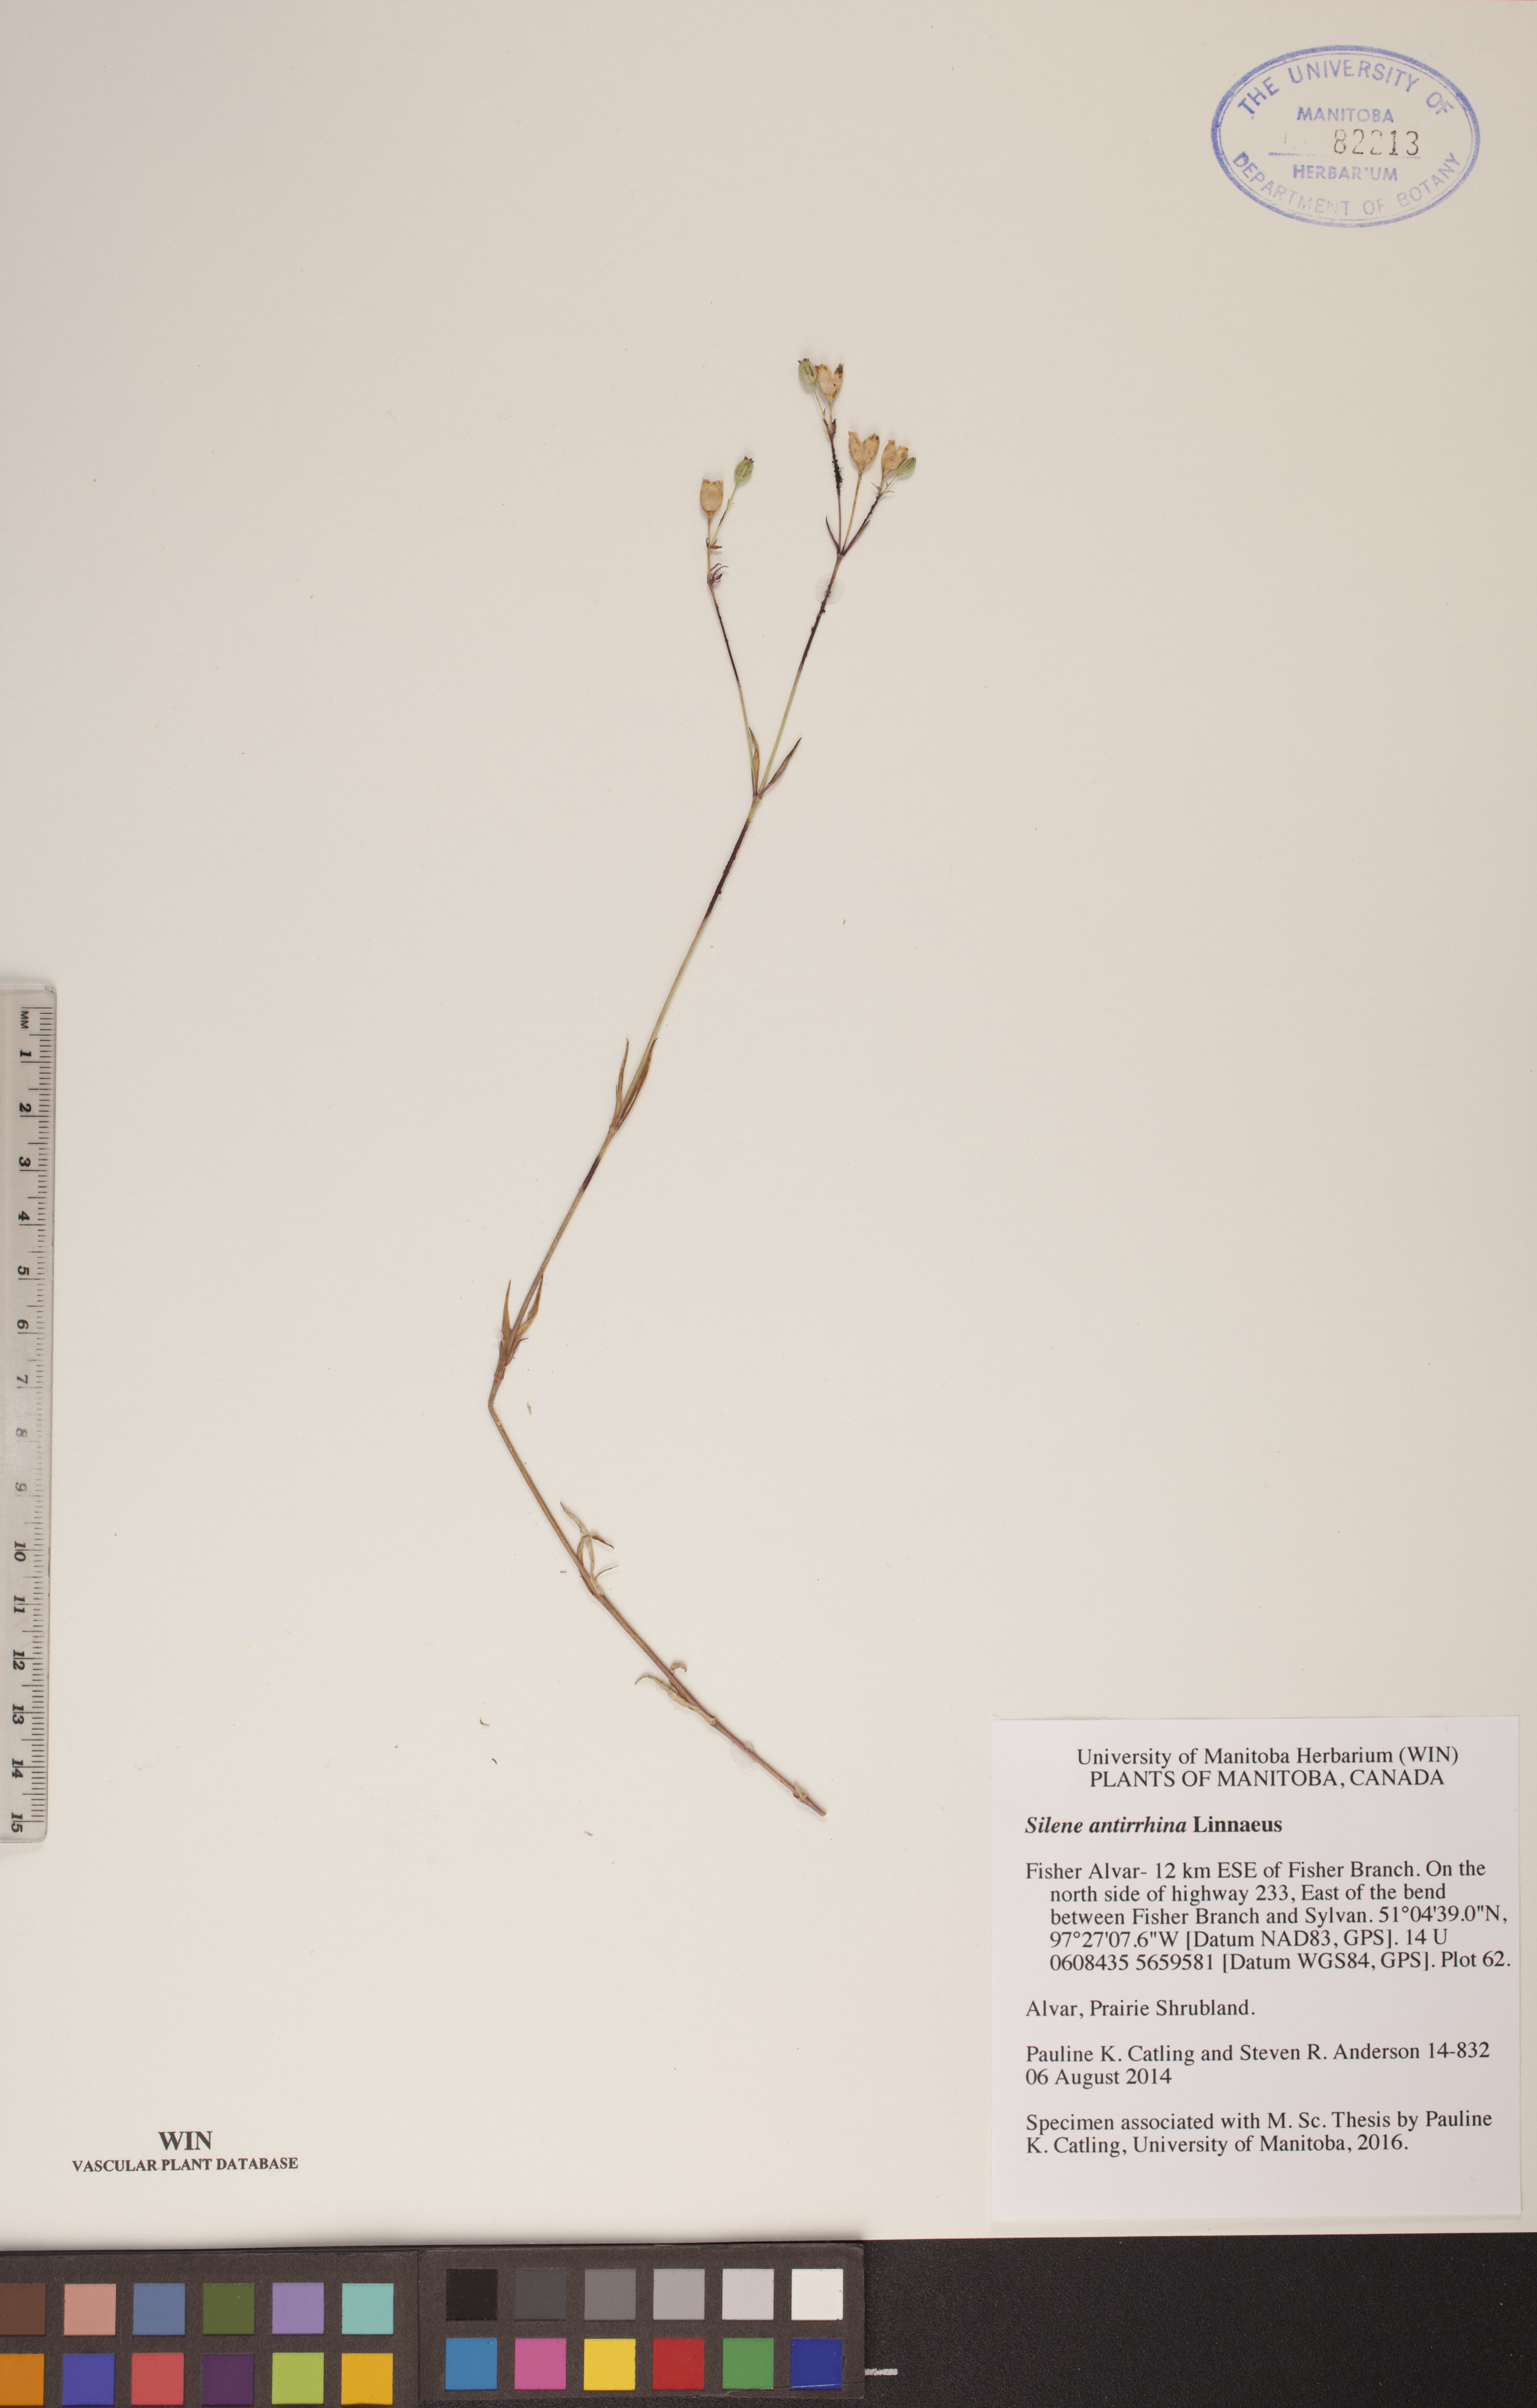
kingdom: Plantae
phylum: Tracheophyta
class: Magnoliopsida
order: Caryophyllales
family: Caryophyllaceae
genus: Silene
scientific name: Silene antirrhina
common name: Sleepy catchfly
